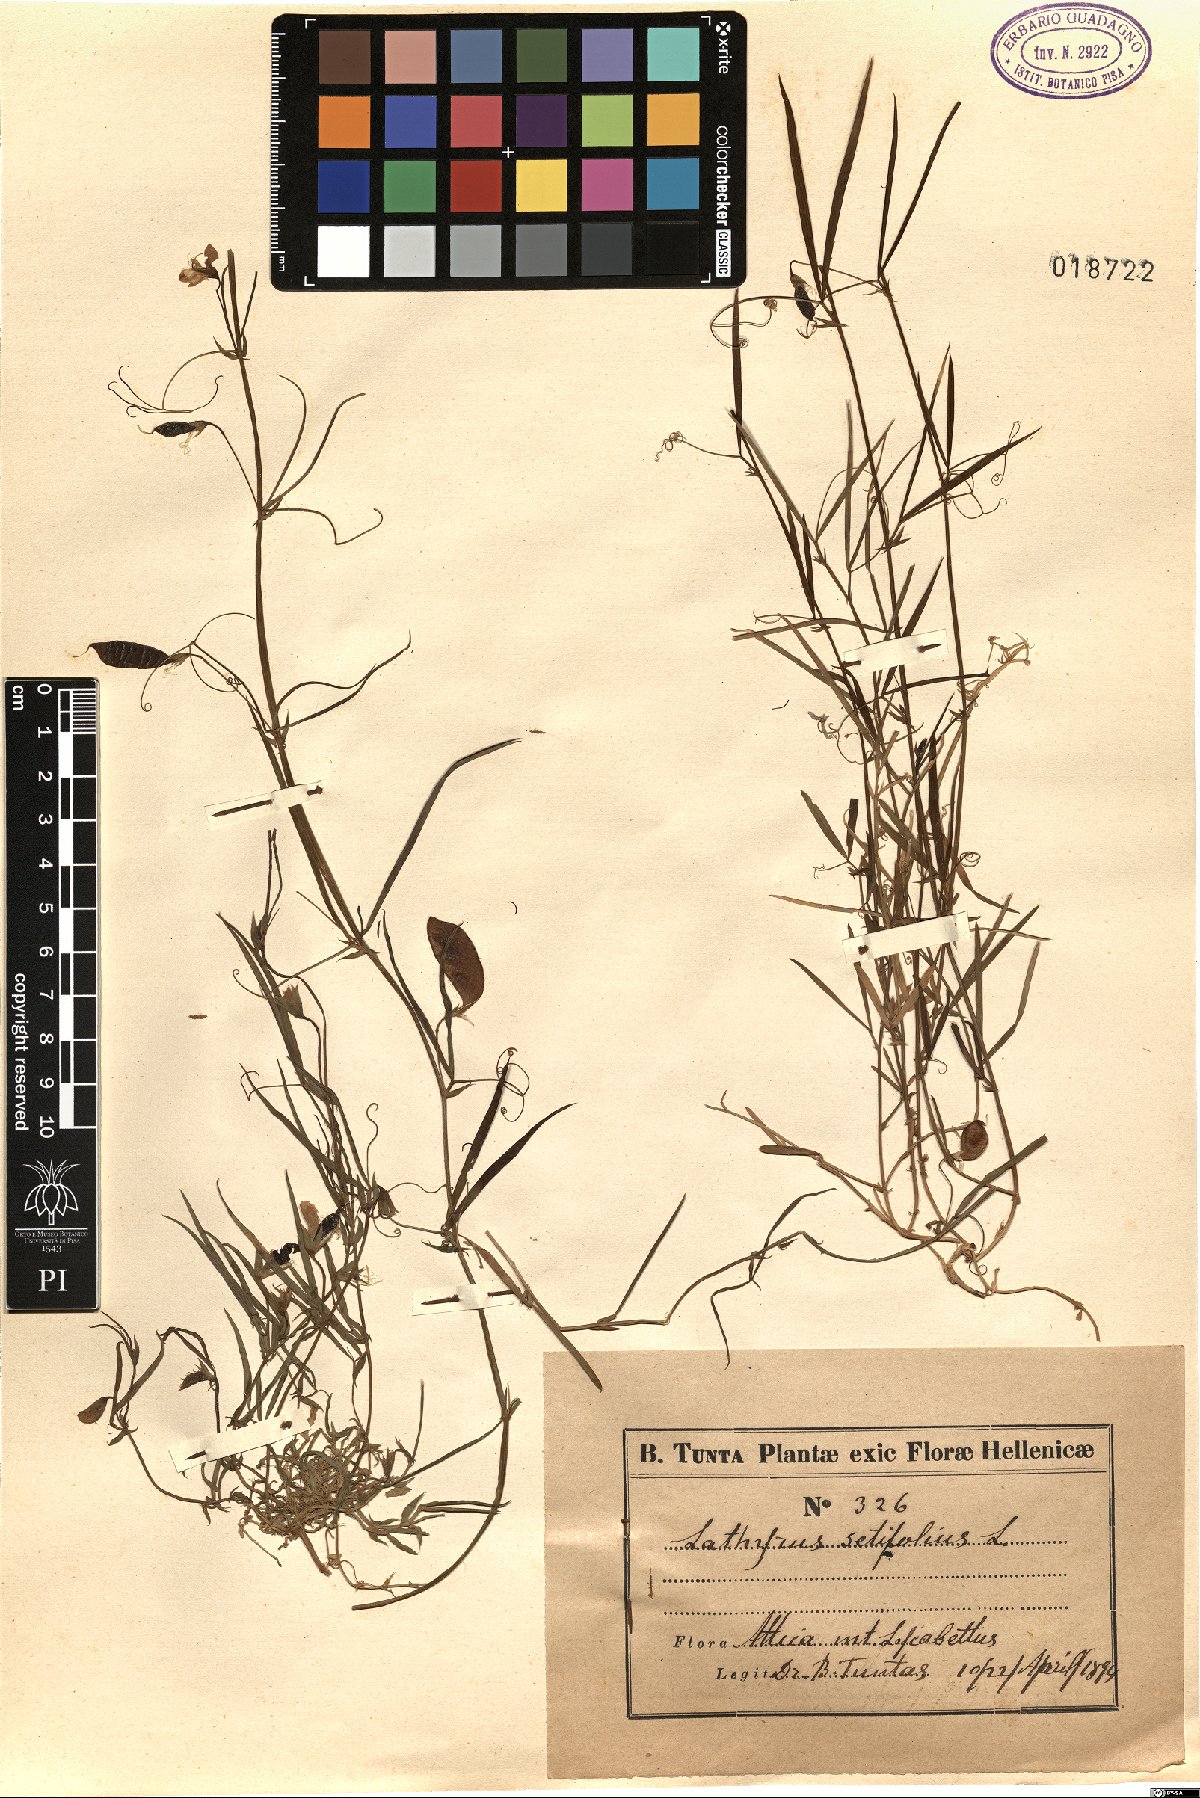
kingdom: Plantae
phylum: Tracheophyta
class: Magnoliopsida
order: Fabales
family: Fabaceae
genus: Lathyrus
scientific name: Lathyrus setifolius
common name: Brown vetchling
